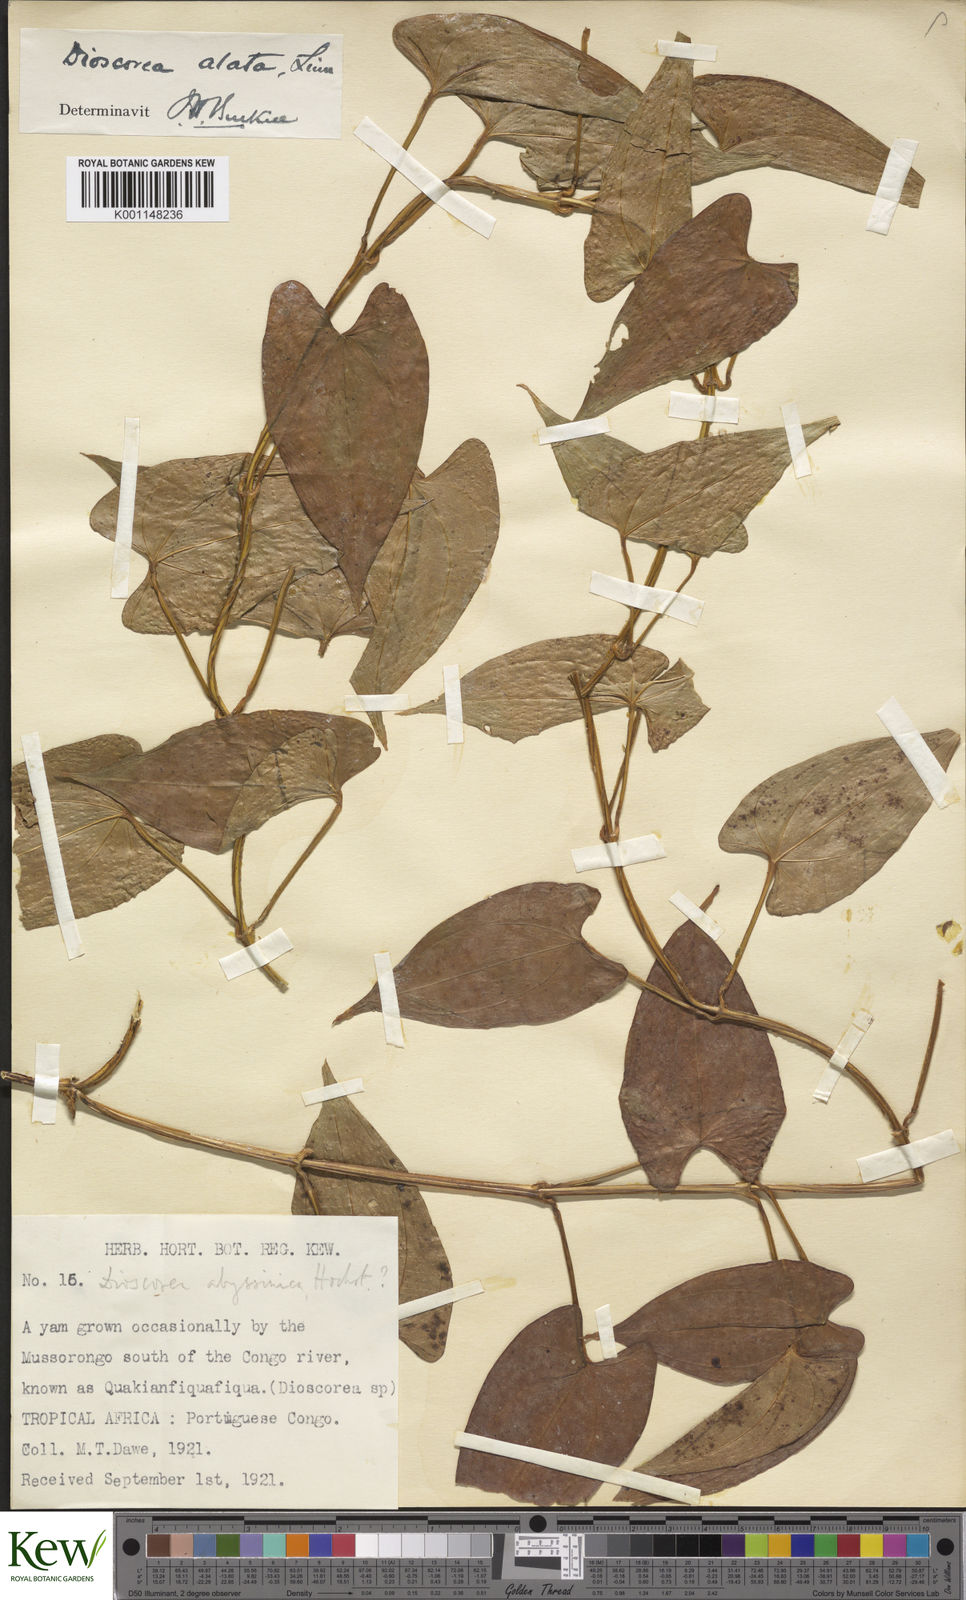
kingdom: Plantae
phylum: Tracheophyta
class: Liliopsida
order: Dioscoreales
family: Dioscoreaceae
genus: Dioscorea
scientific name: Dioscorea alata
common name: Water yam
